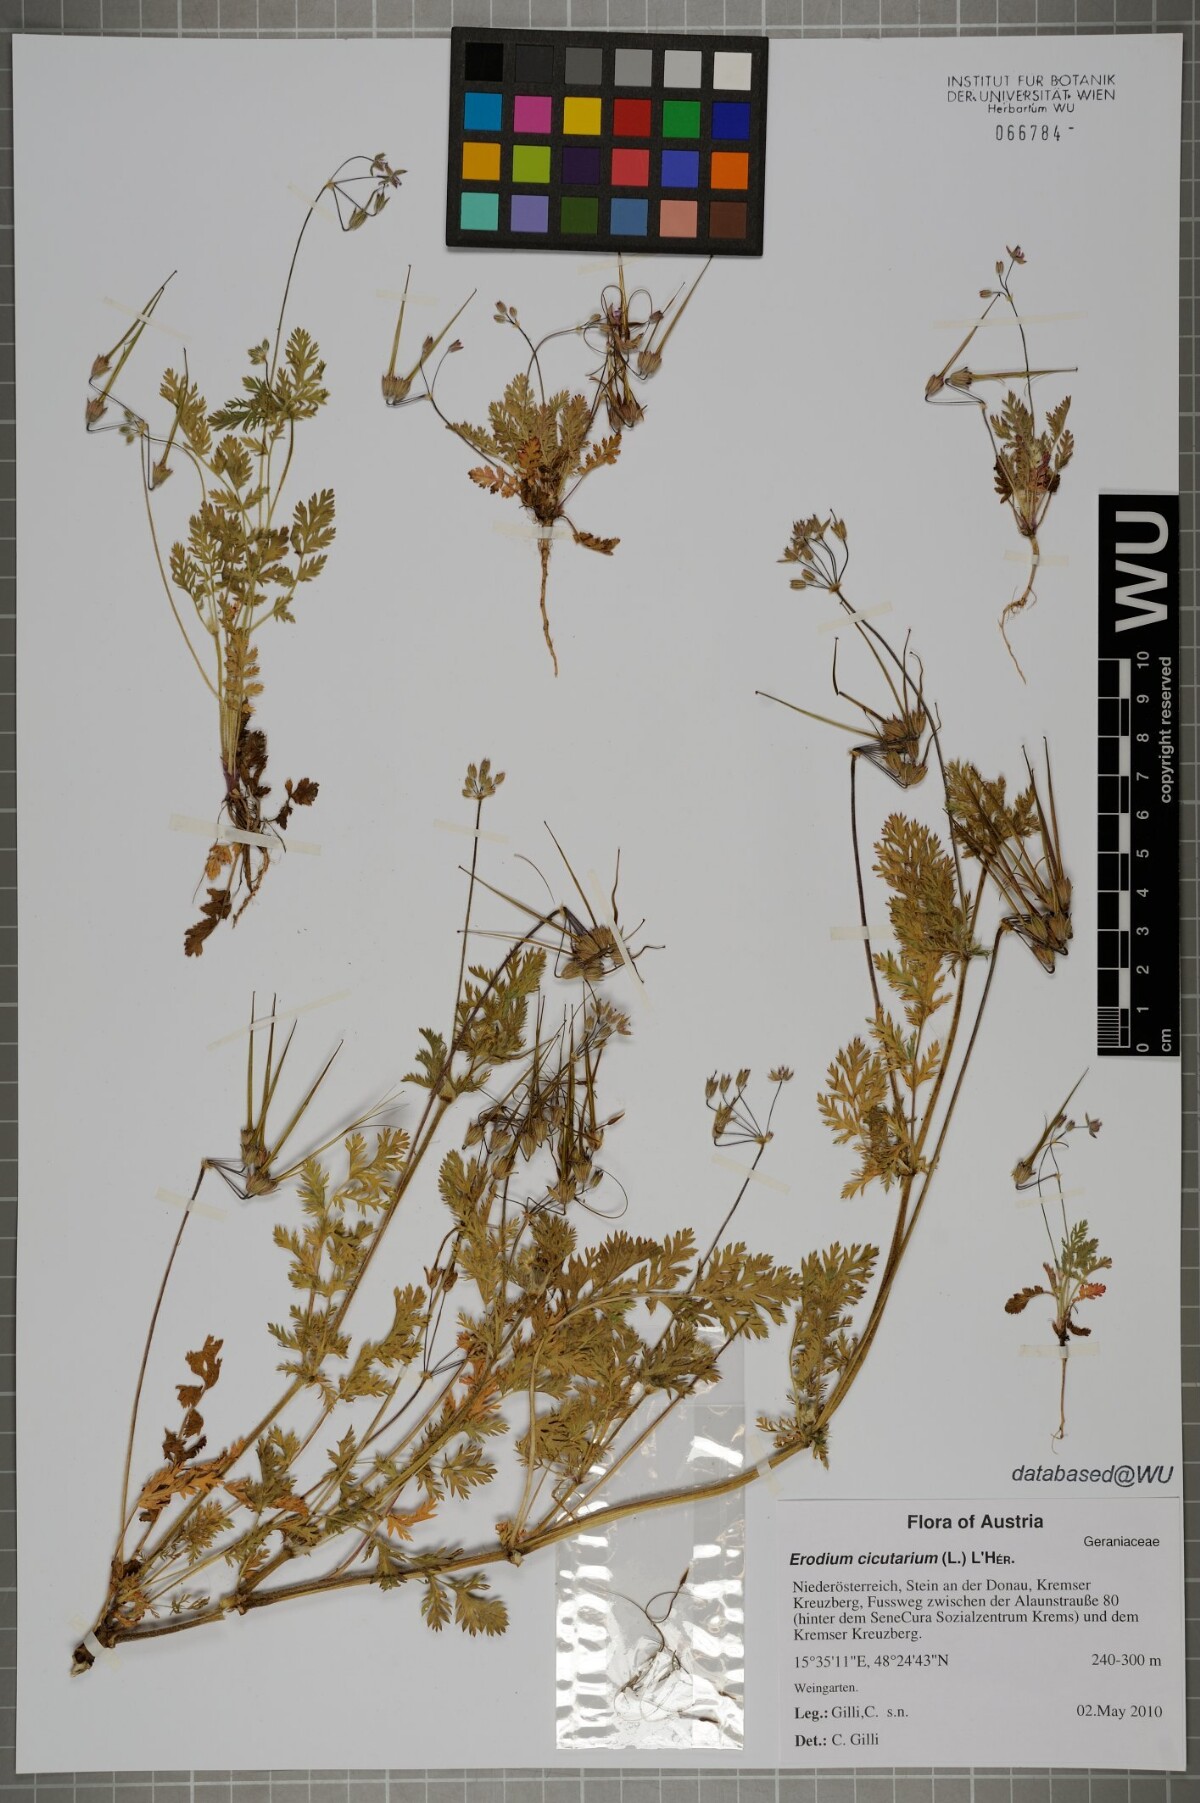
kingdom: Plantae
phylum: Tracheophyta
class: Magnoliopsida
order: Geraniales
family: Geraniaceae
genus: Erodium
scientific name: Erodium cicutarium
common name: Common stork's-bill
